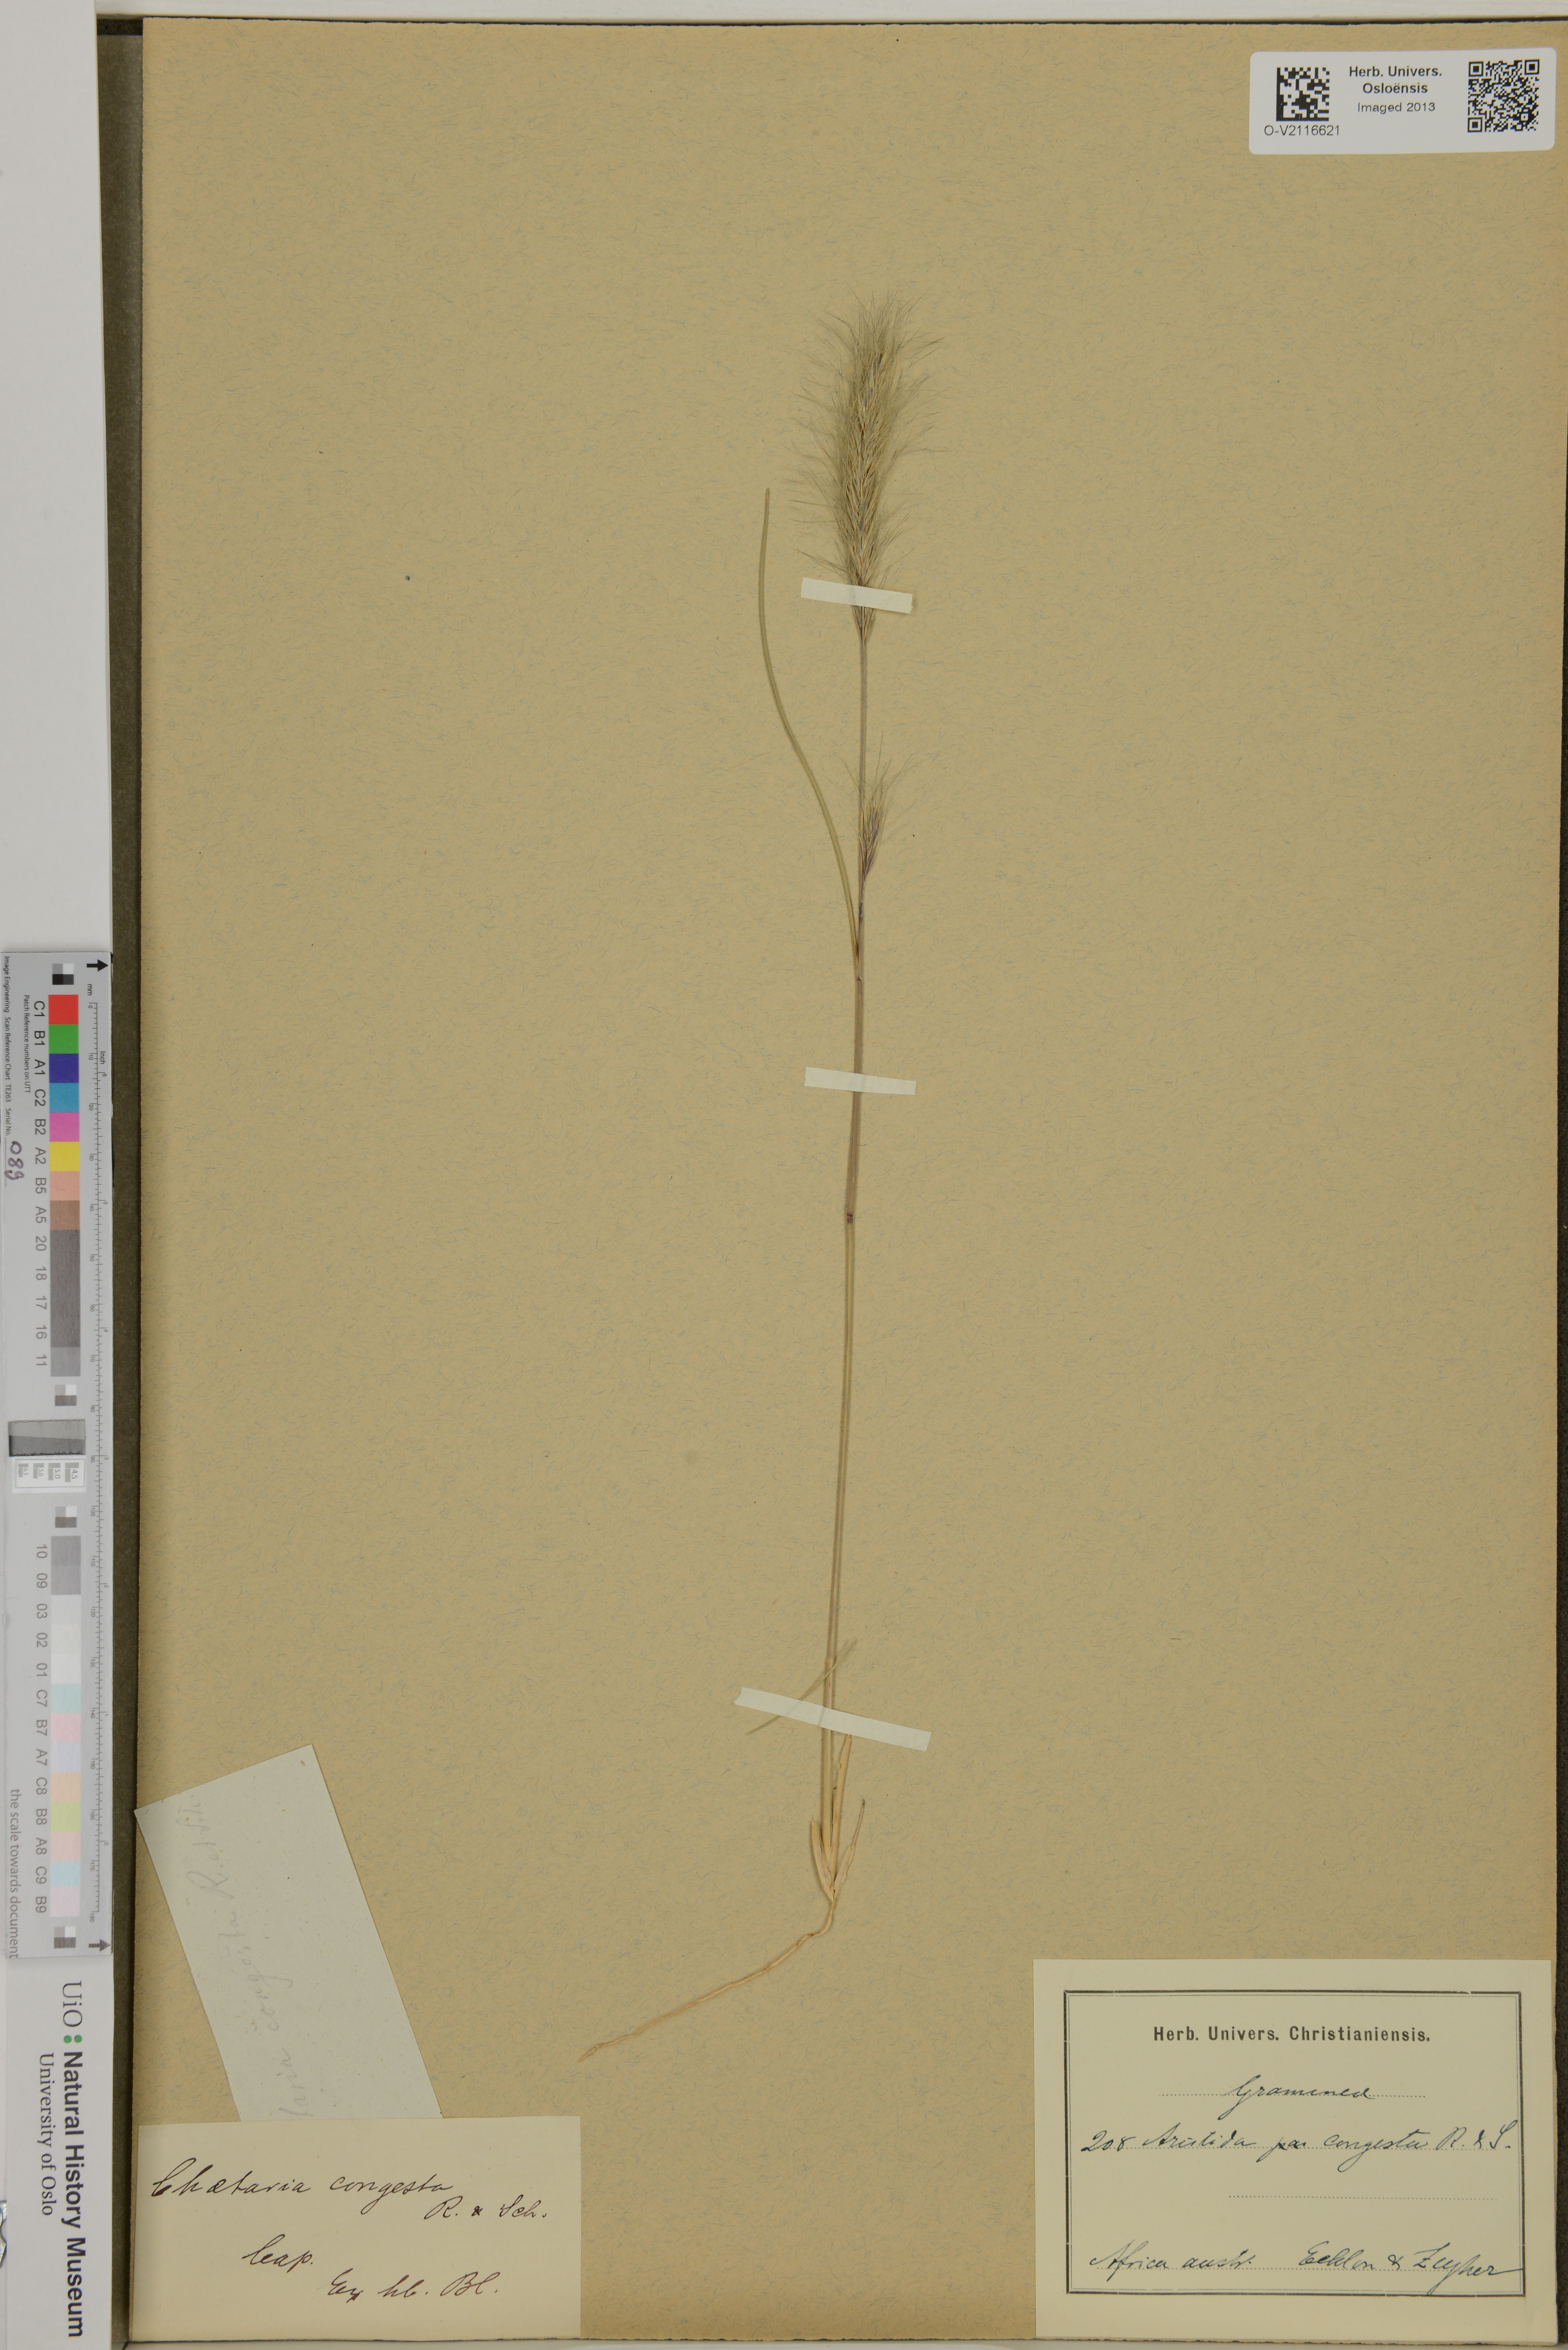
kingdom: Plantae
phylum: Tracheophyta
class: Liliopsida
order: Poales
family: Poaceae
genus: Aristida
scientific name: Aristida congesta
